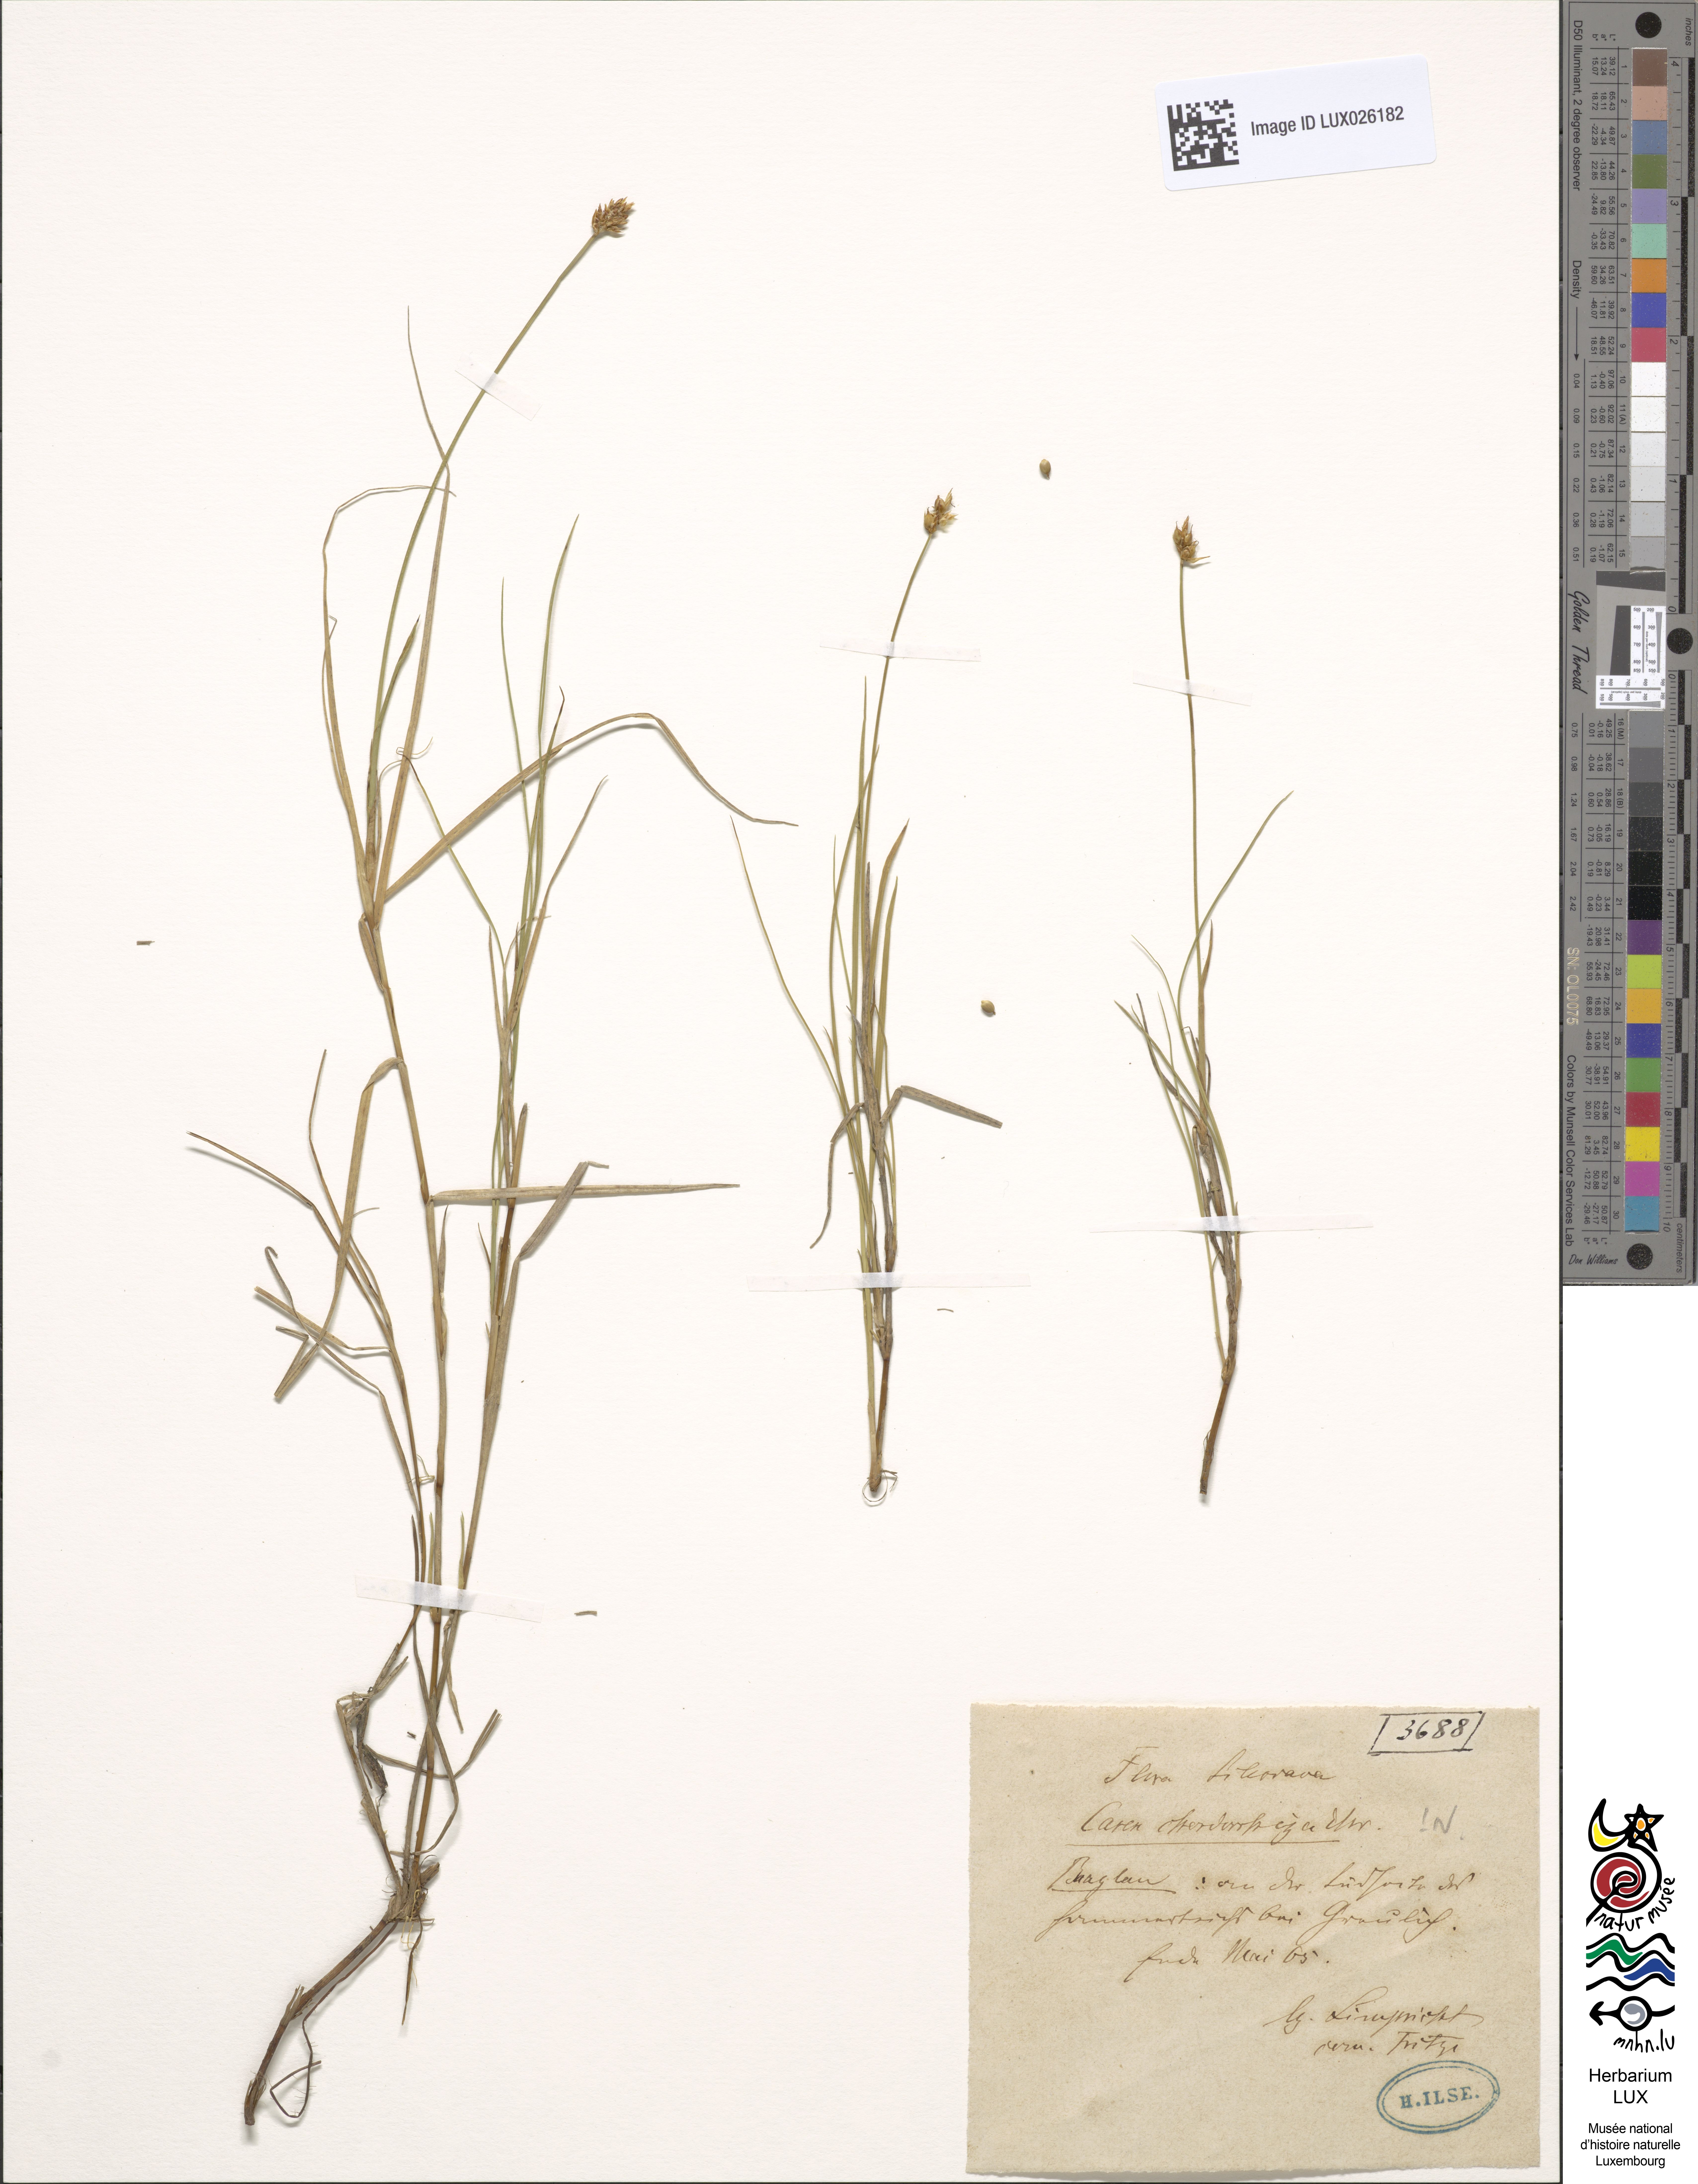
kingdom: Plantae
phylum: Tracheophyta
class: Liliopsida
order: Poales
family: Cyperaceae
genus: Carex
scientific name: Carex chordorrhiza
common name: String sedge
